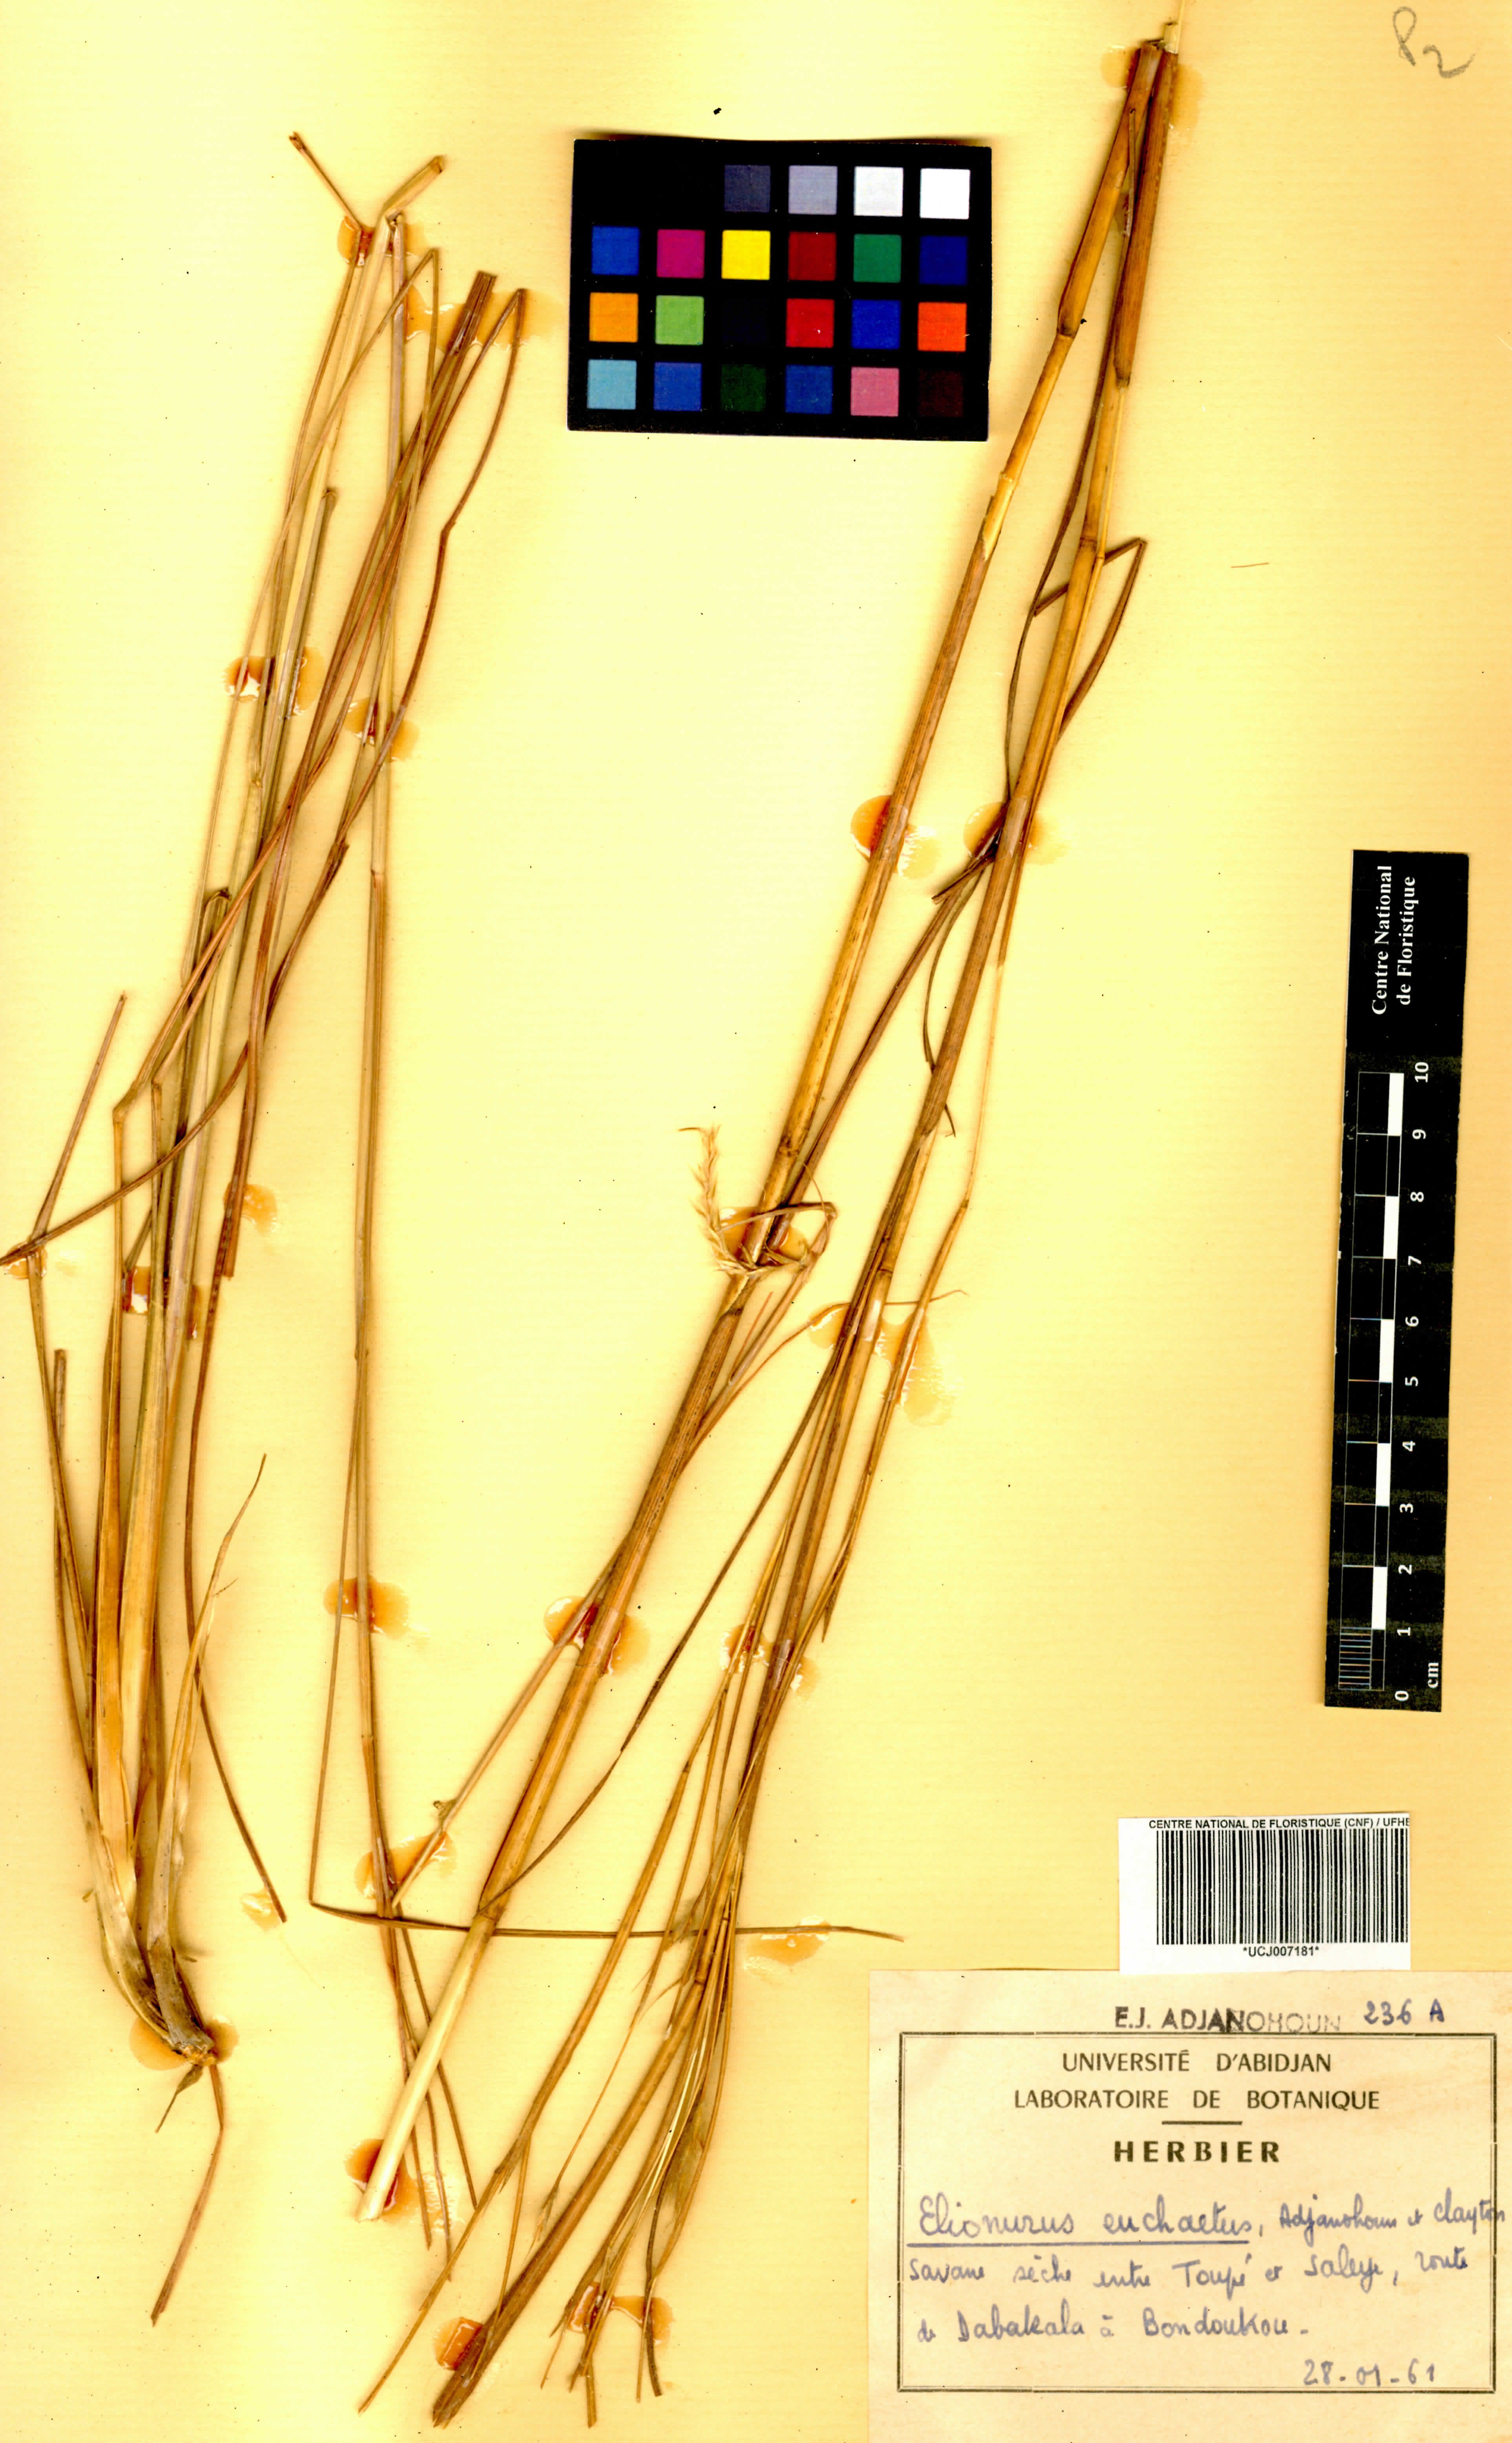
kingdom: Plantae
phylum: Tracheophyta
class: Liliopsida
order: Poales
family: Poaceae
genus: Elionurus
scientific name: Elionurus euchaetus
